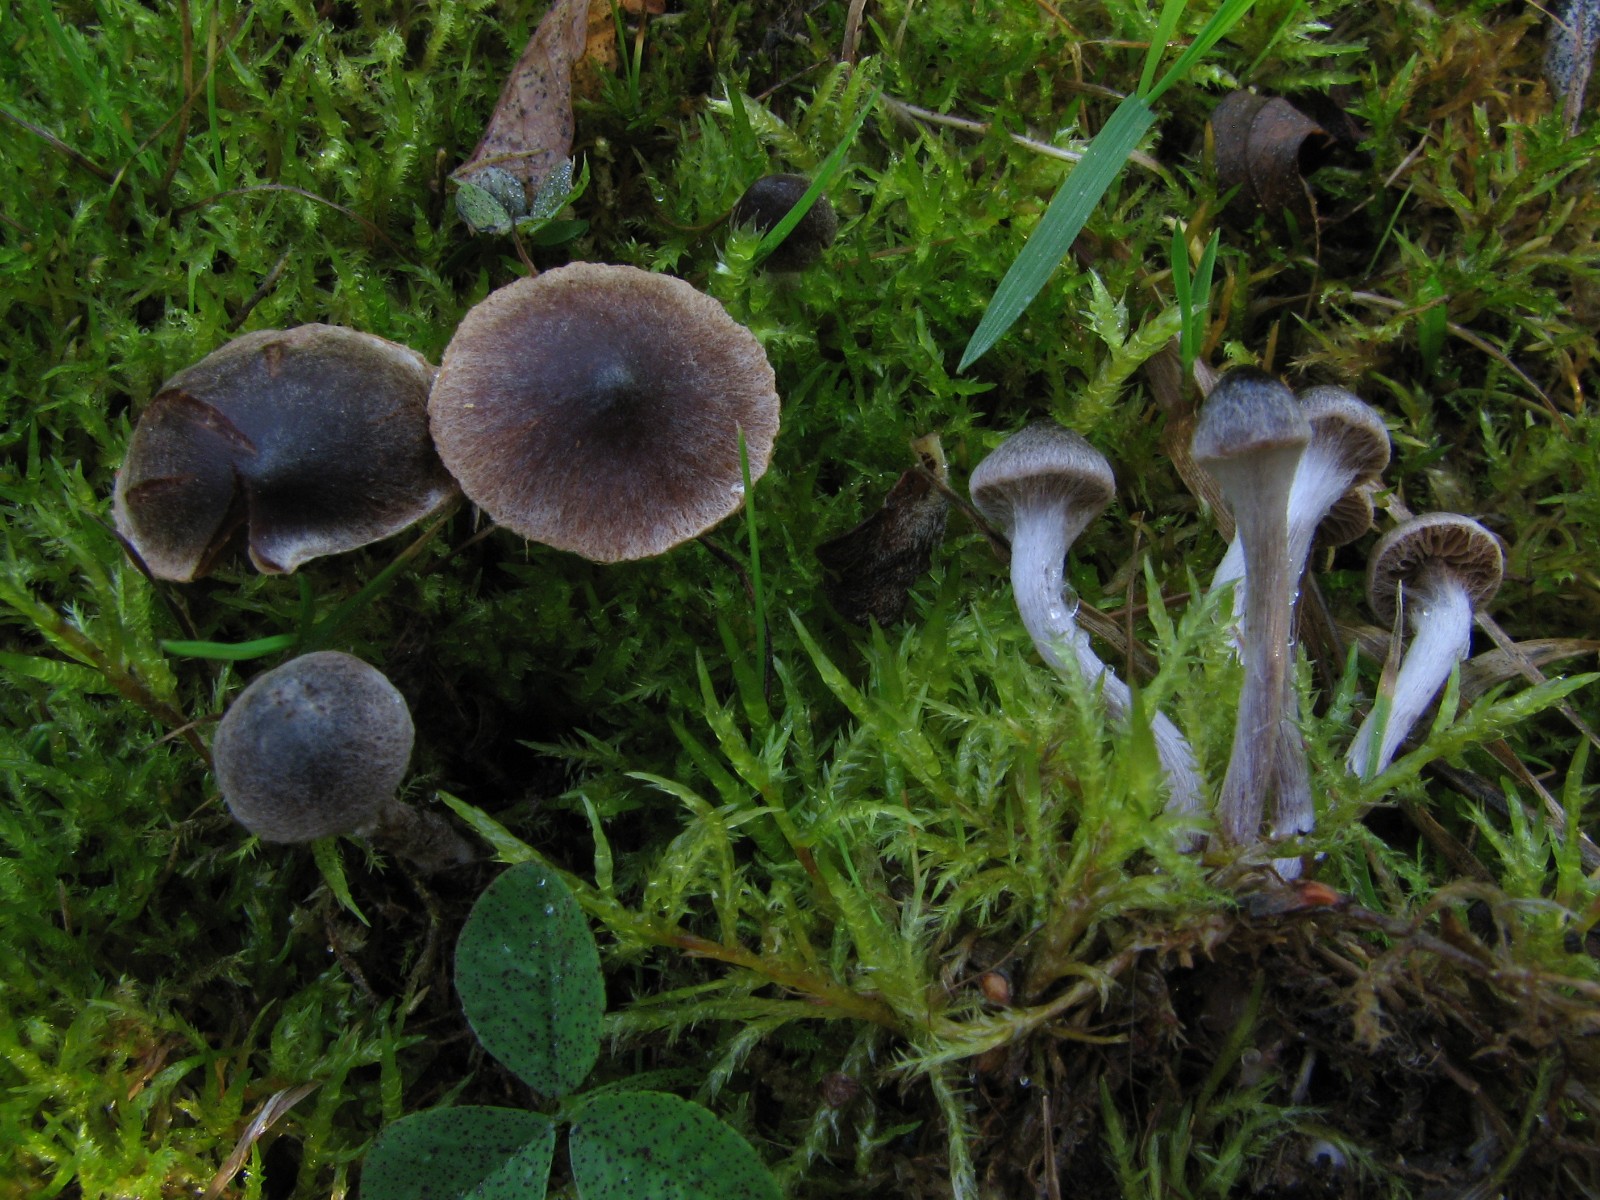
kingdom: Fungi
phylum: Basidiomycota
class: Agaricomycetes
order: Agaricales
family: Cortinariaceae
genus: Cortinarius
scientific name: Cortinarius
